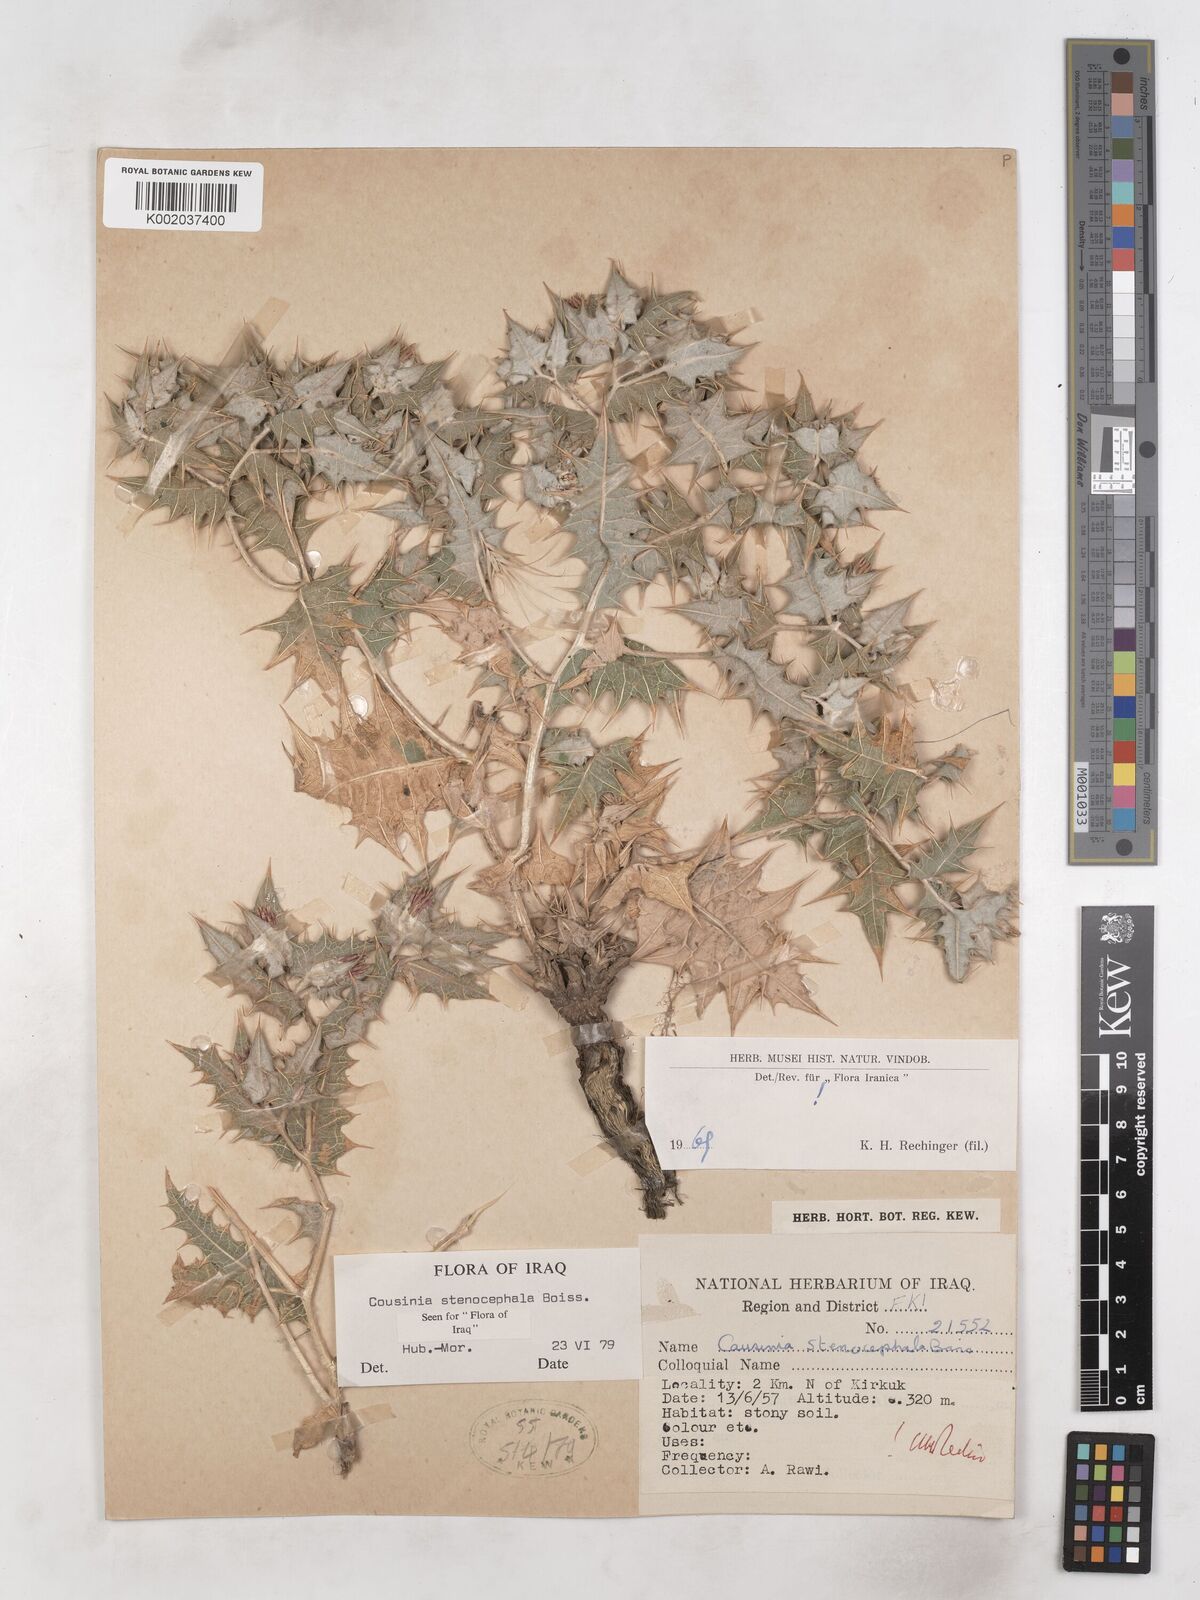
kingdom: Plantae
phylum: Tracheophyta
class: Magnoliopsida
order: Asterales
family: Asteraceae
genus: Cousinia
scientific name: Cousinia stenocephala
